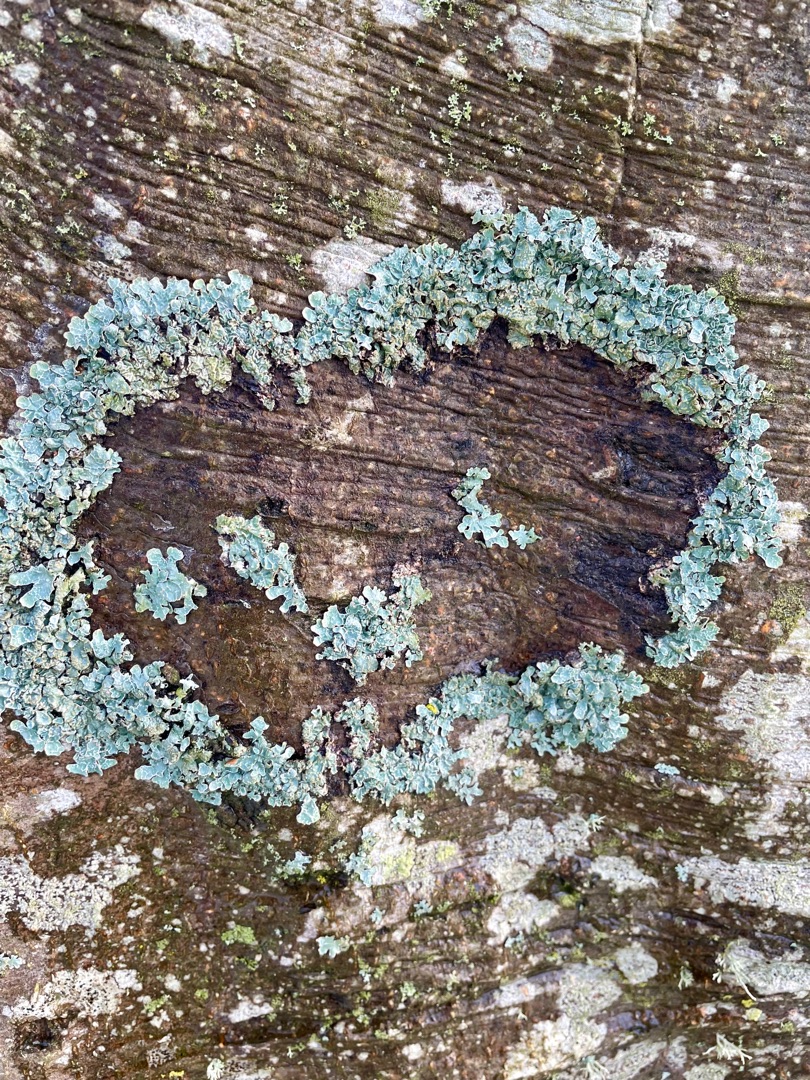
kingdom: Fungi
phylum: Ascomycota
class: Lecanoromycetes
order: Lecanorales
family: Parmeliaceae
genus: Parmelia
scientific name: Parmelia sulcata
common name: Rynket skållav
